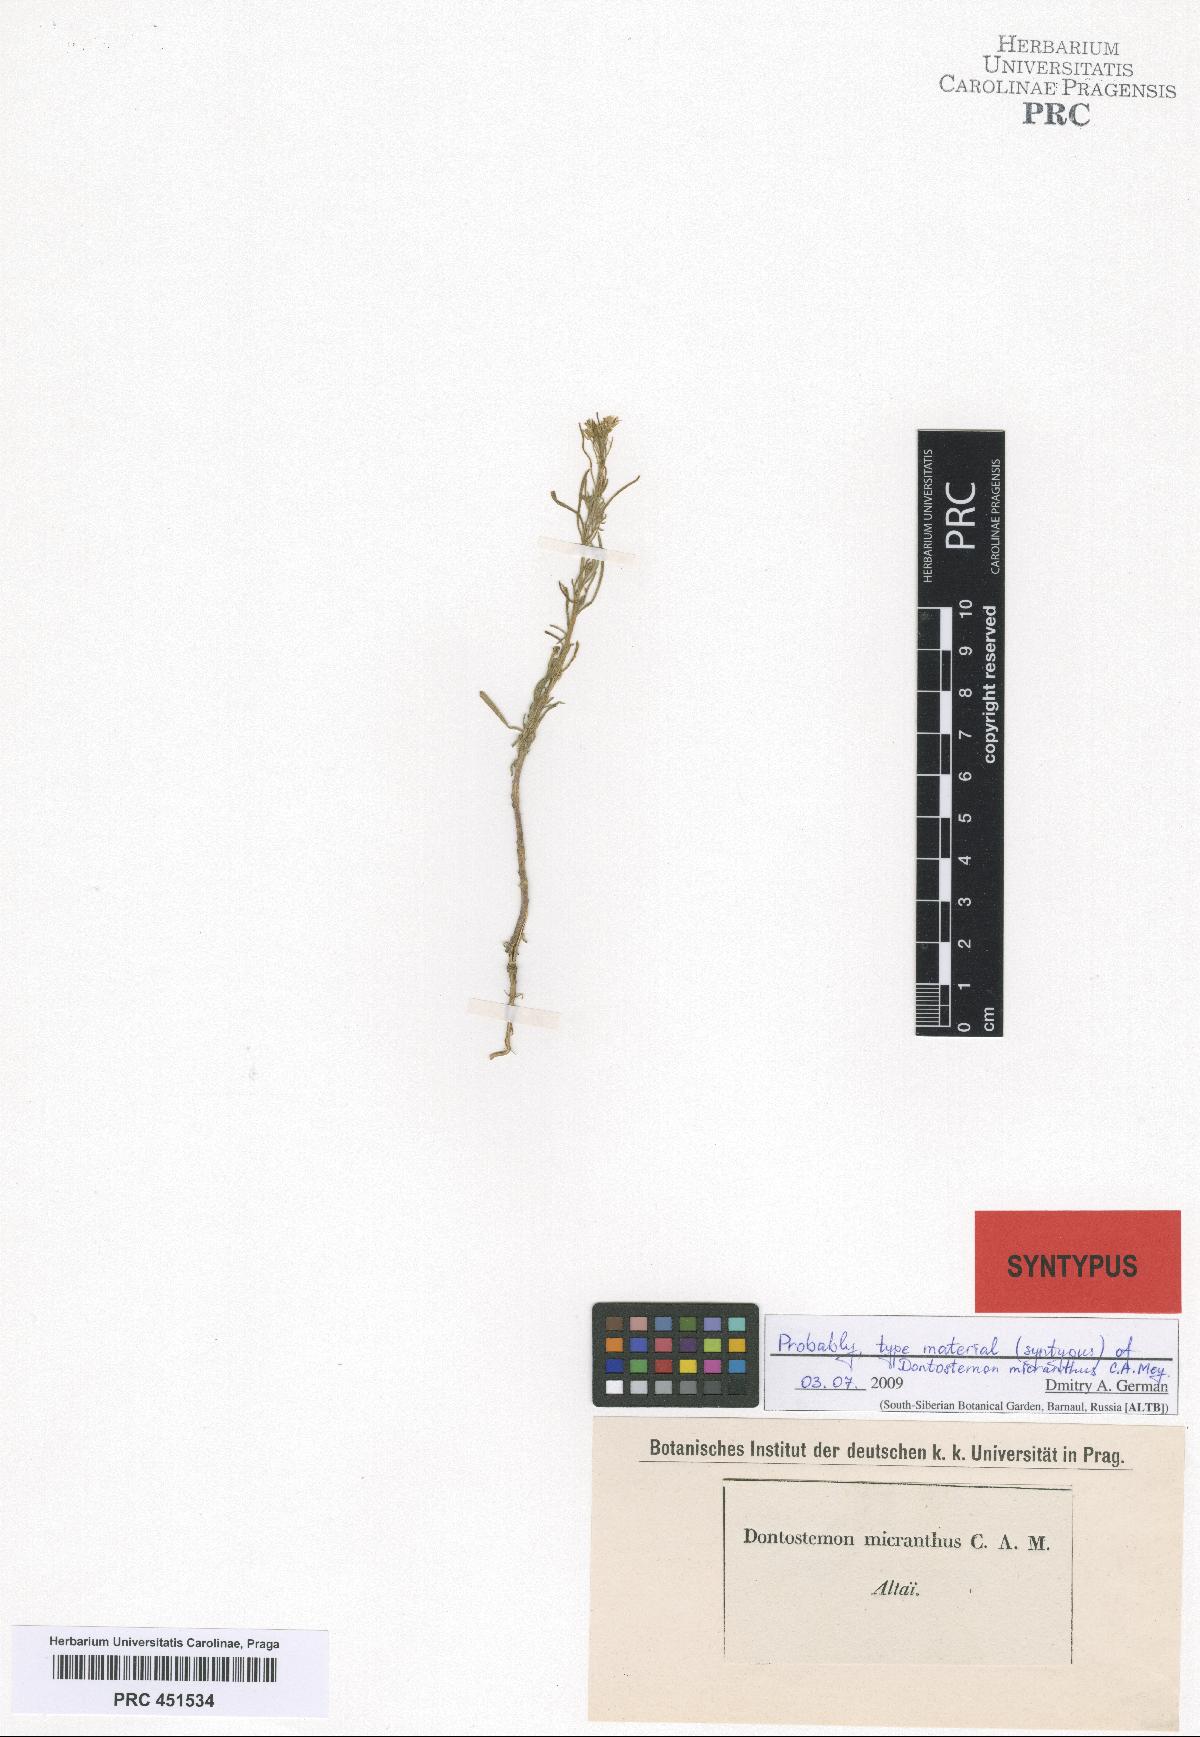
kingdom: Plantae
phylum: Tracheophyta
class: Magnoliopsida
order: Brassicales
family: Brassicaceae
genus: Dontostemon
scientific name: Dontostemon micranthus
